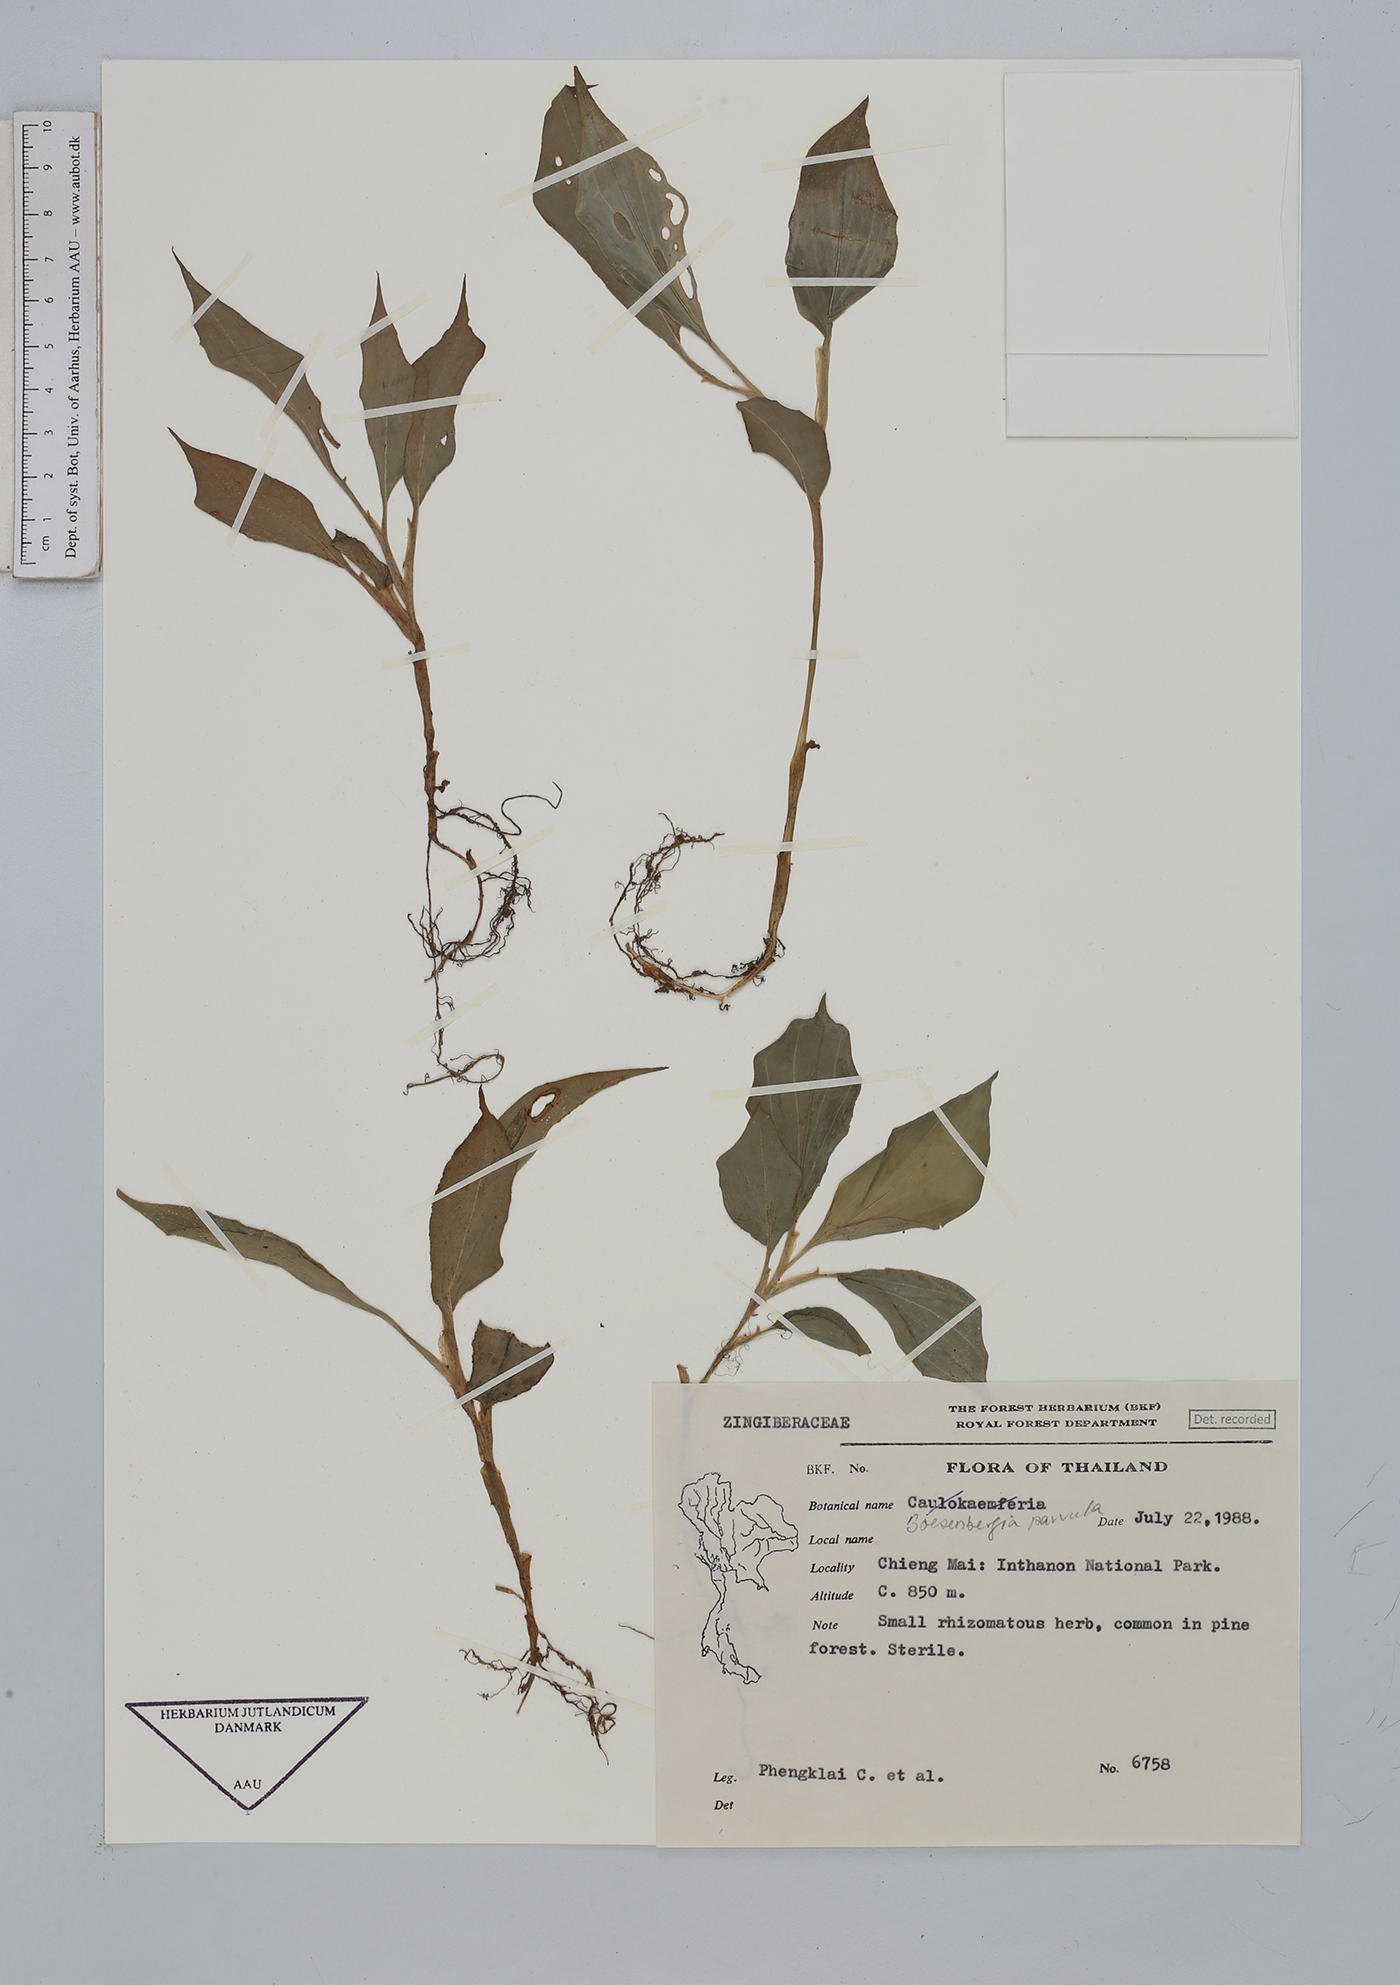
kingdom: Plantae
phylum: Tracheophyta
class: Liliopsida
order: Zingiberales
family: Zingiberaceae
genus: Boesenbergia
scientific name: Boesenbergia parvula
